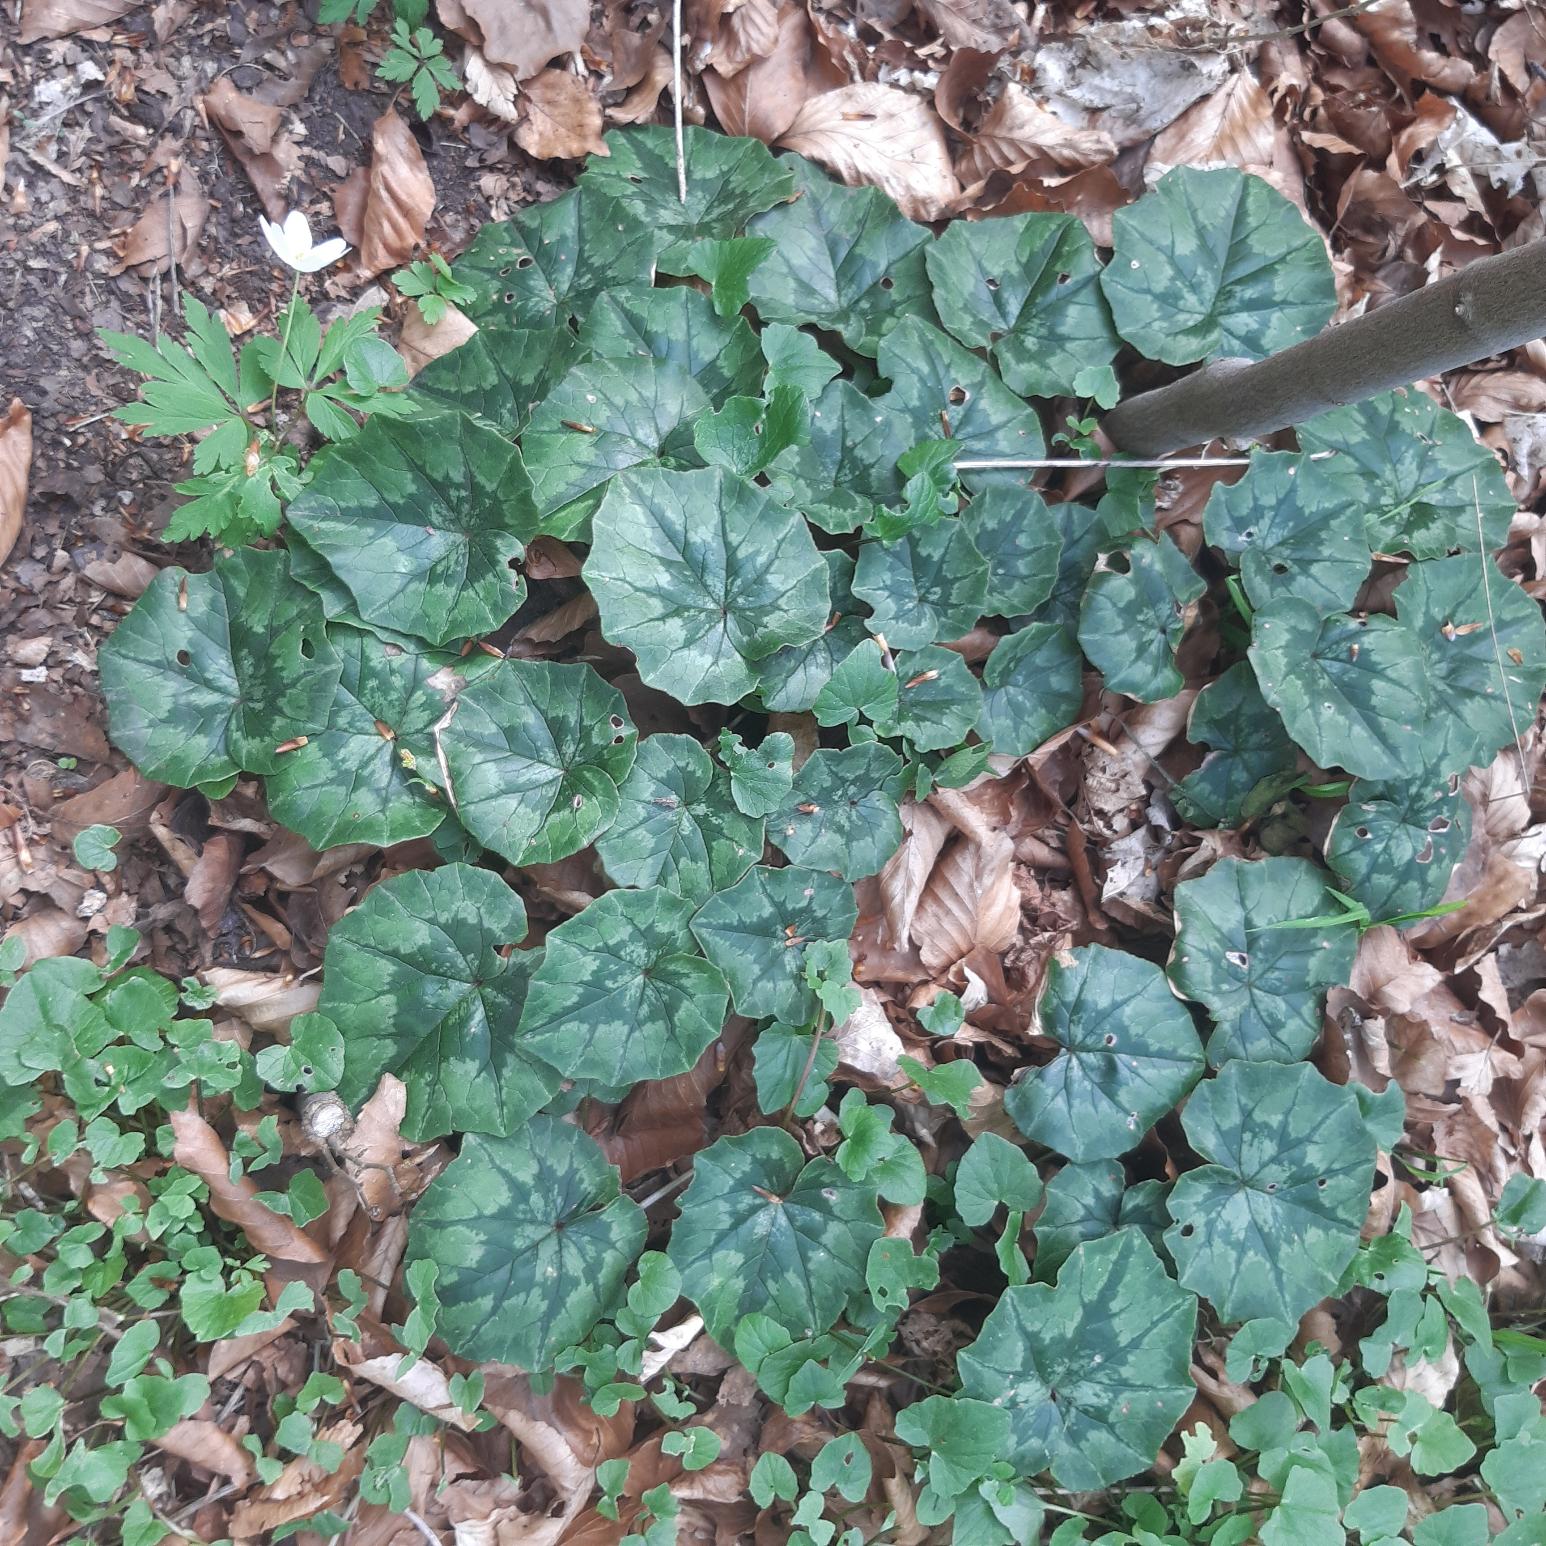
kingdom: Plantae
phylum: Tracheophyta
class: Magnoliopsida
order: Ericales
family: Primulaceae
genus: Cyclamen
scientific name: Cyclamen hederifolium
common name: Vedbendbladet alpeviol
